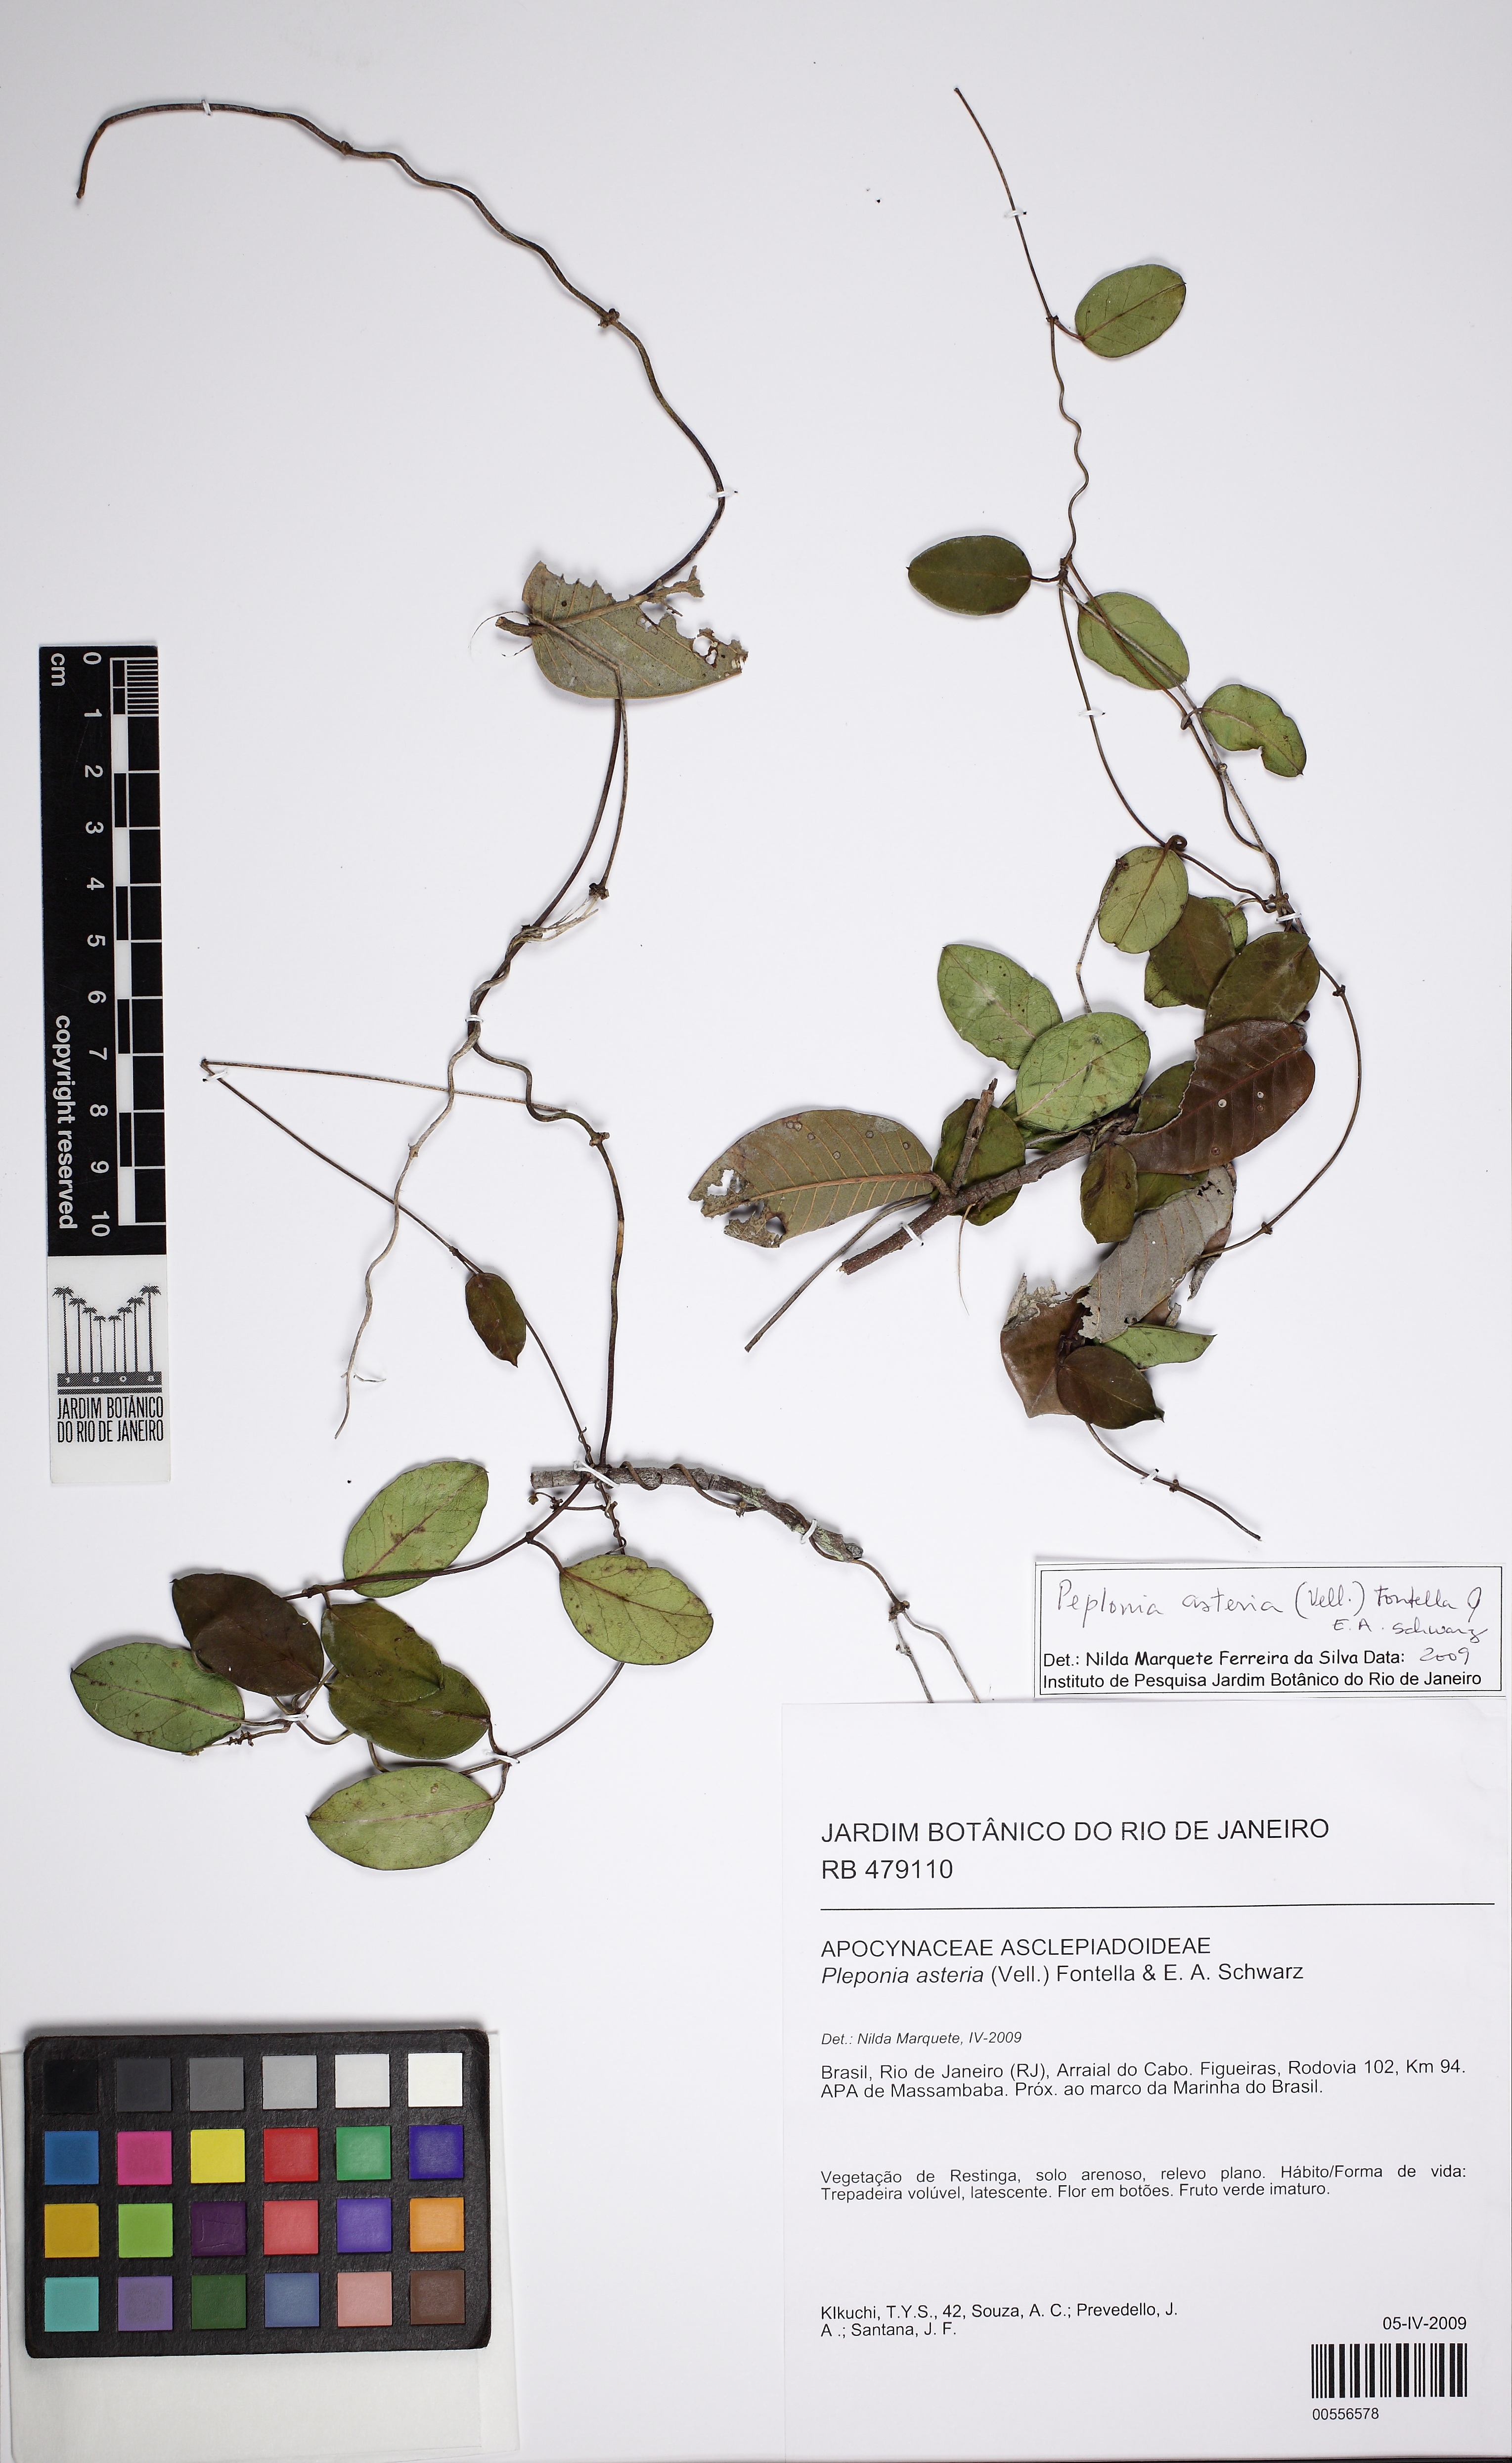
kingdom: Plantae
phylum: Tracheophyta
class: Magnoliopsida
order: Gentianales
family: Apocynaceae
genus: Peplonia
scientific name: Peplonia asteria
